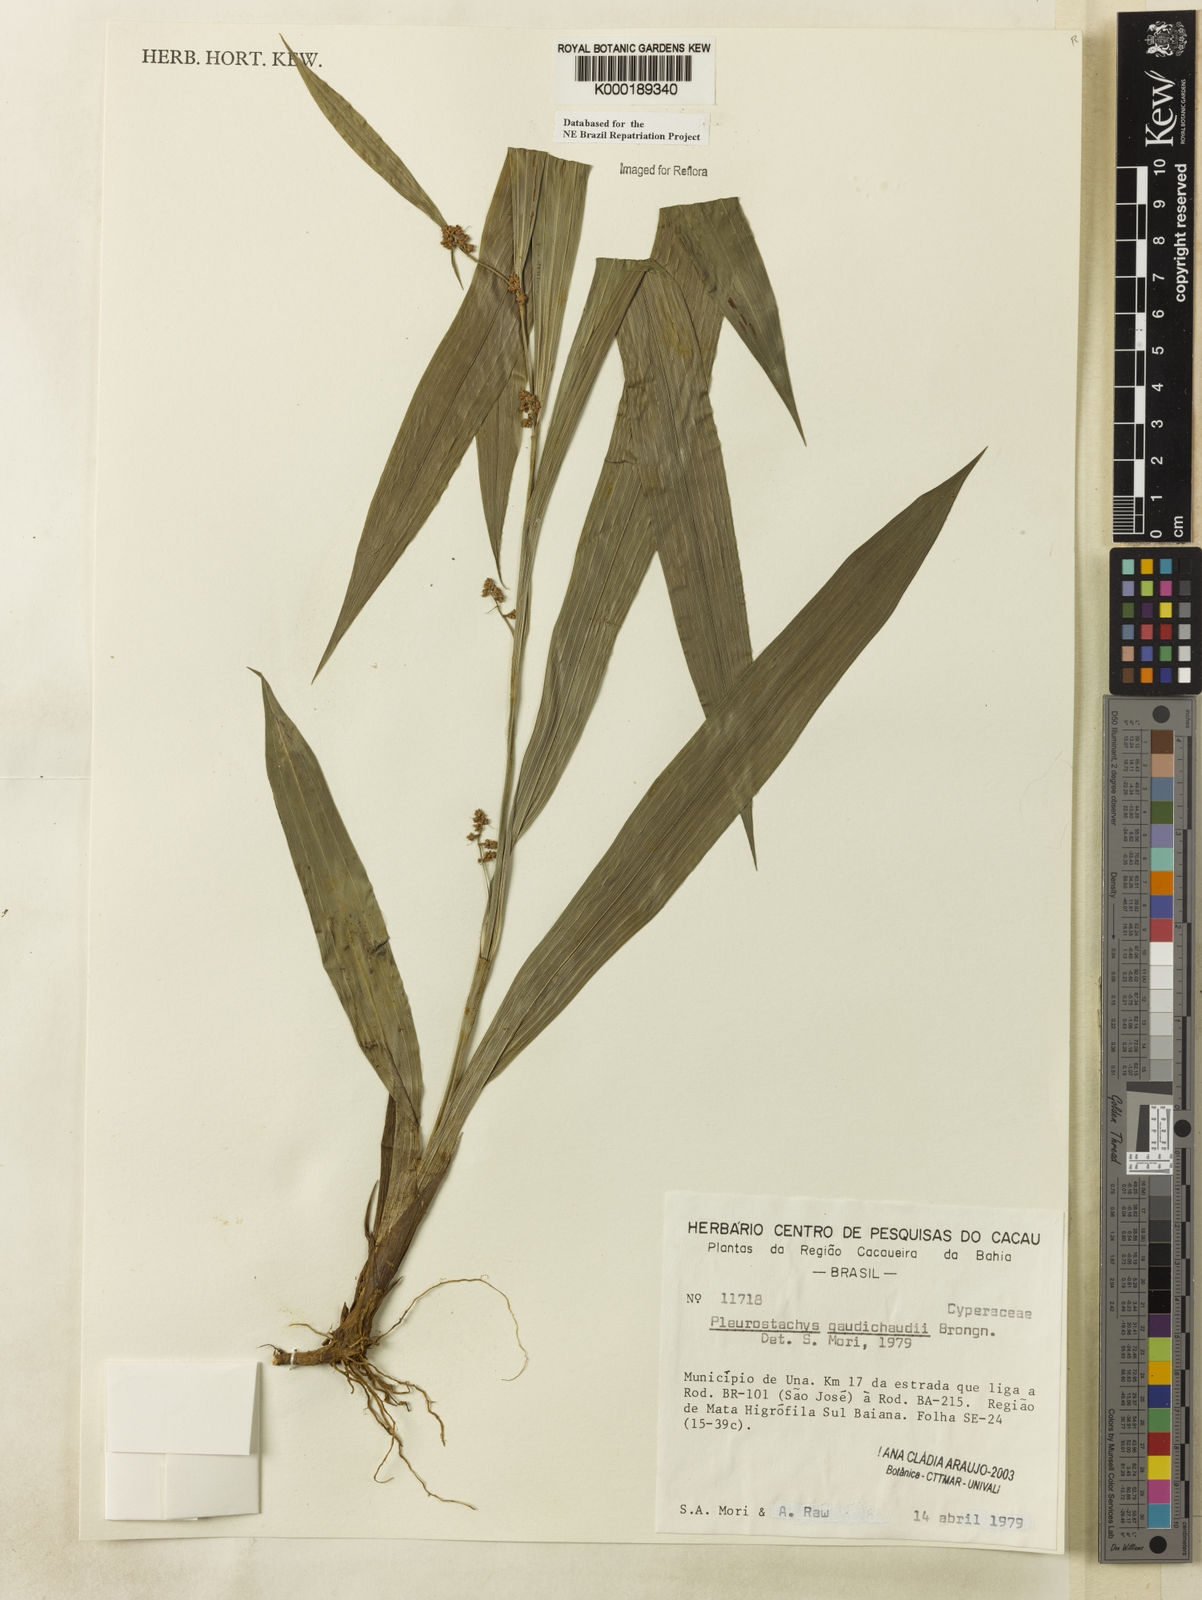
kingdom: Plantae
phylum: Tracheophyta
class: Liliopsida
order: Poales
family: Cyperaceae
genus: Rhynchospora
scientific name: Rhynchospora gaudichaudii
